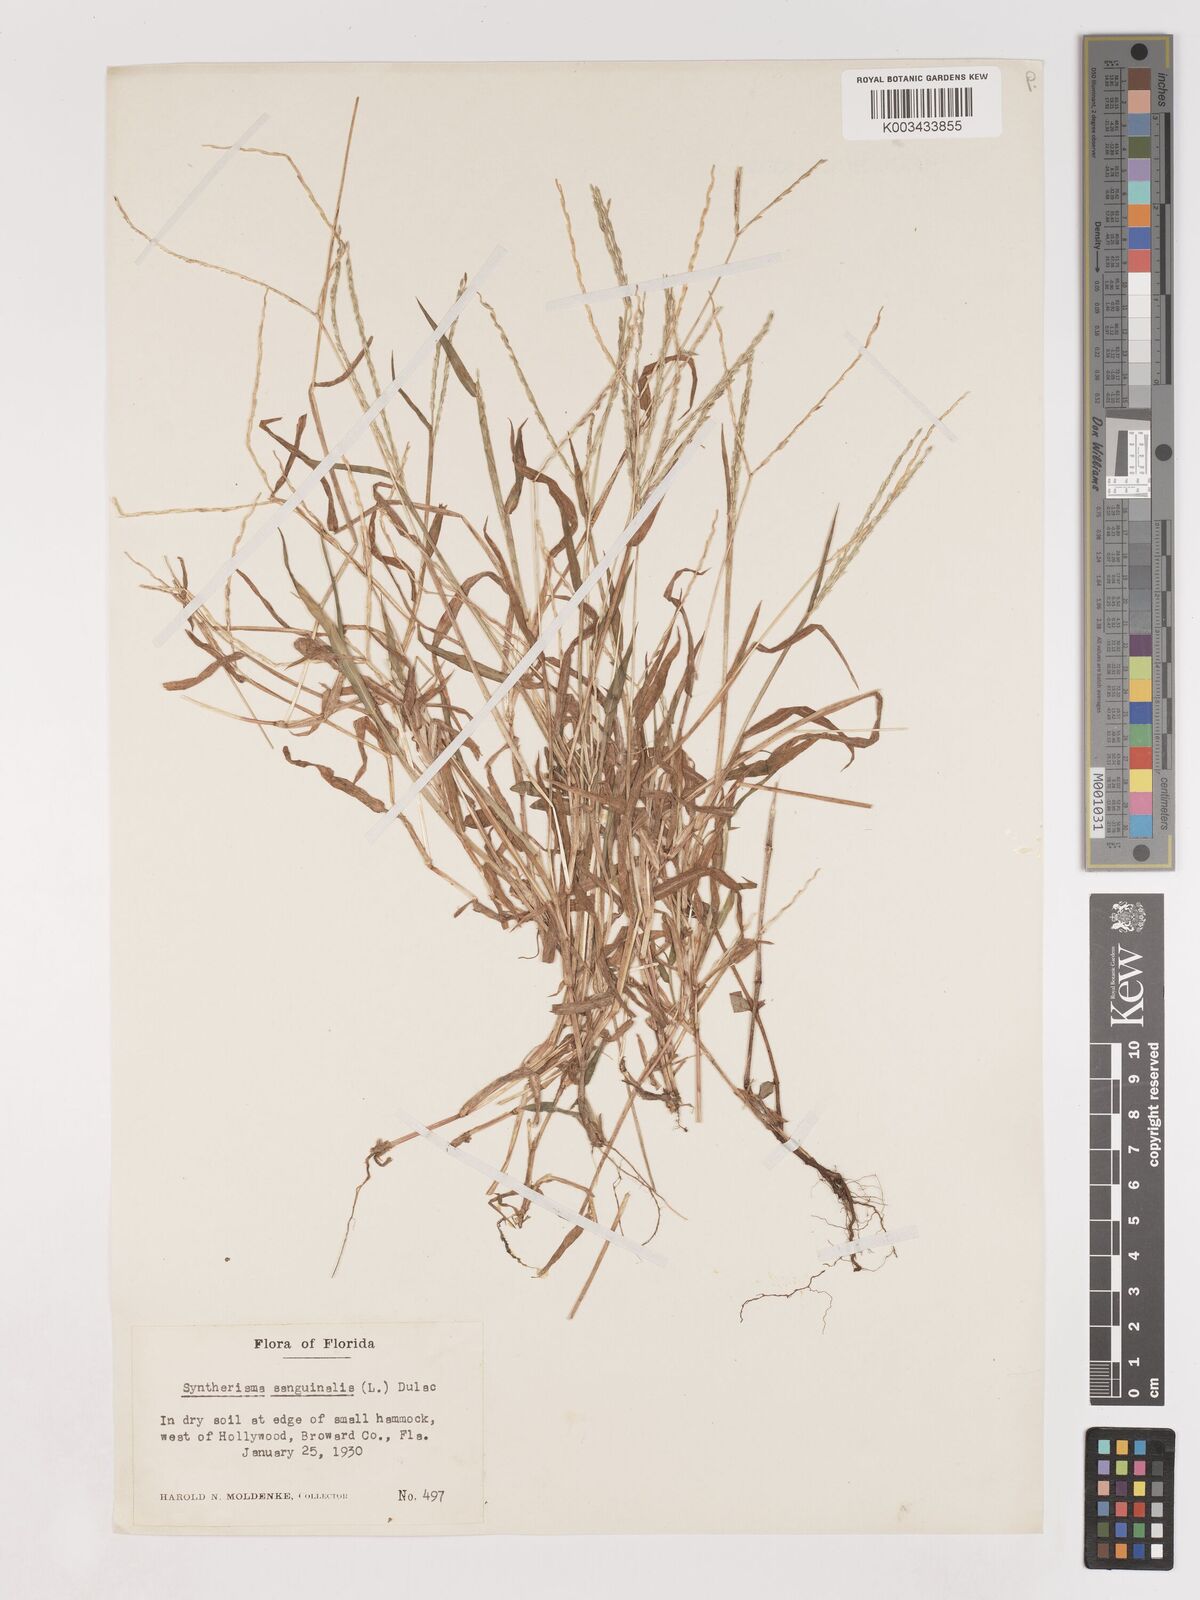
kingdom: Plantae
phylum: Tracheophyta
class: Liliopsida
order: Poales
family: Poaceae
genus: Digitaria
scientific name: Digitaria ciliaris
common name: Tropical finger-grass
